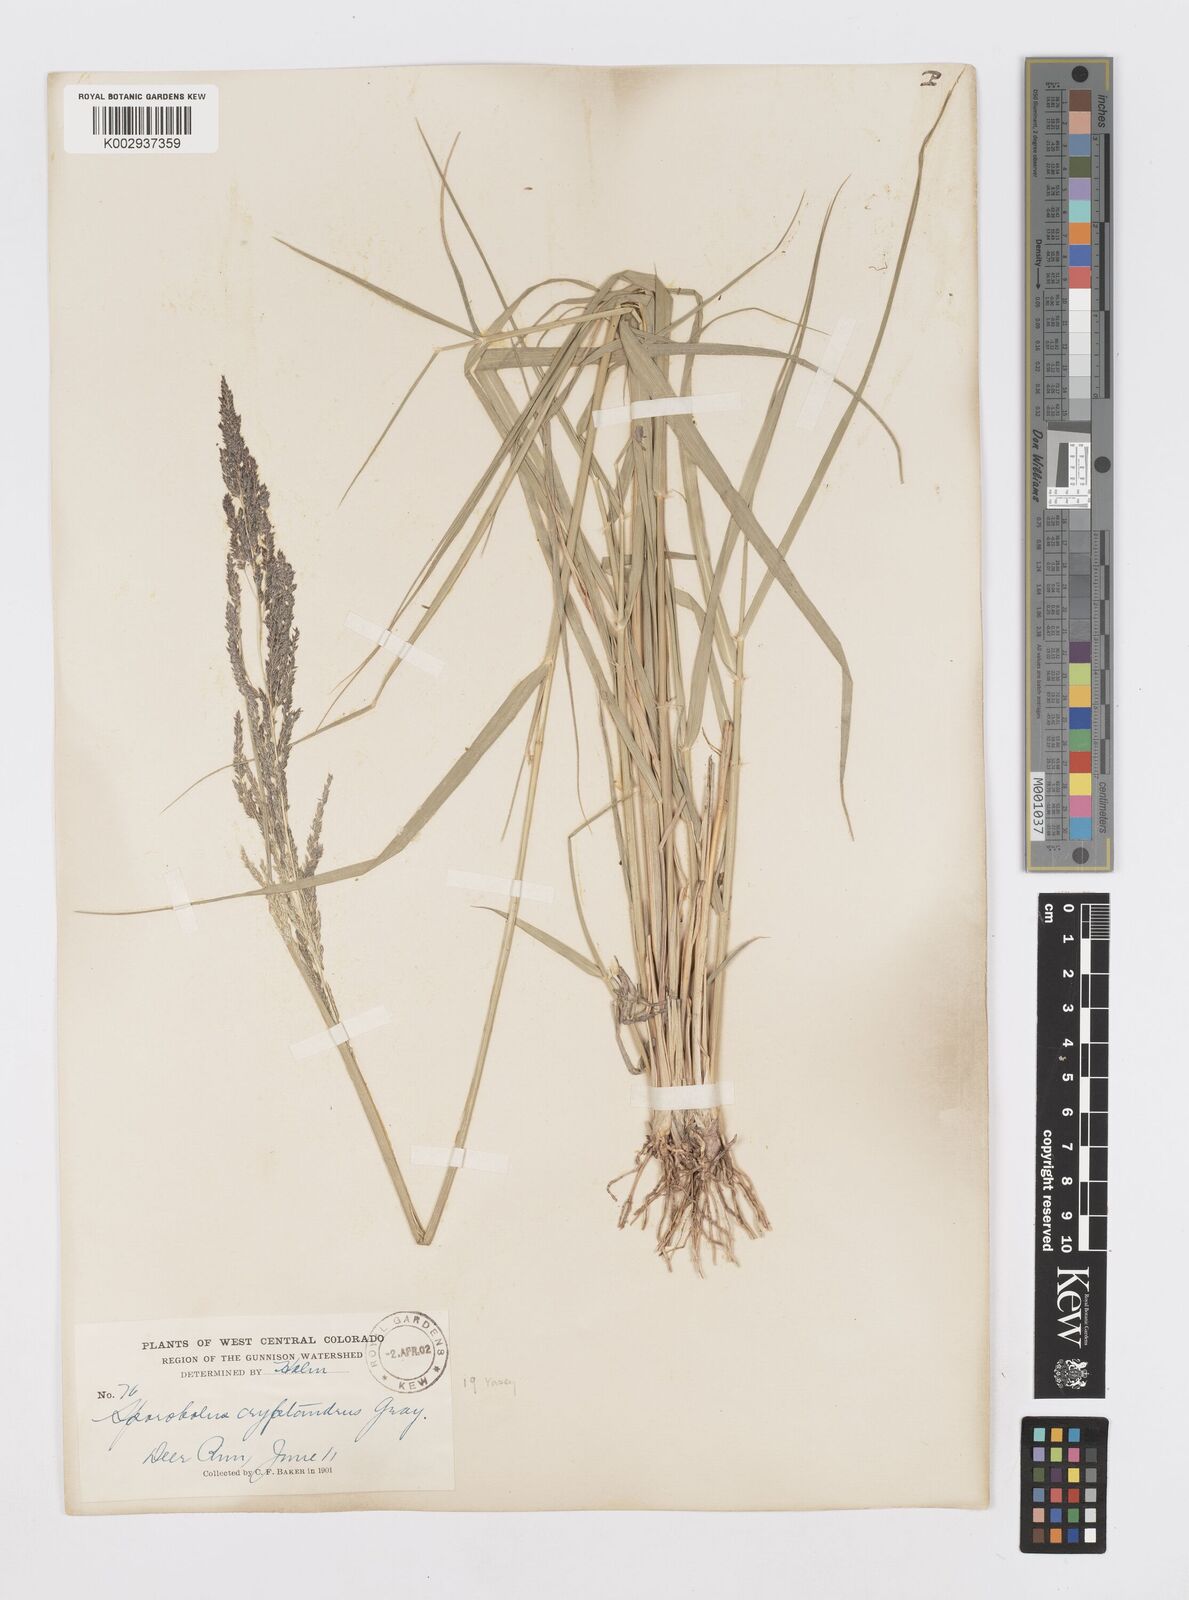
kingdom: Plantae
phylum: Tracheophyta
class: Liliopsida
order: Poales
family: Poaceae
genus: Sporobolus
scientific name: Sporobolus cryptandrus
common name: Sand dropseed
